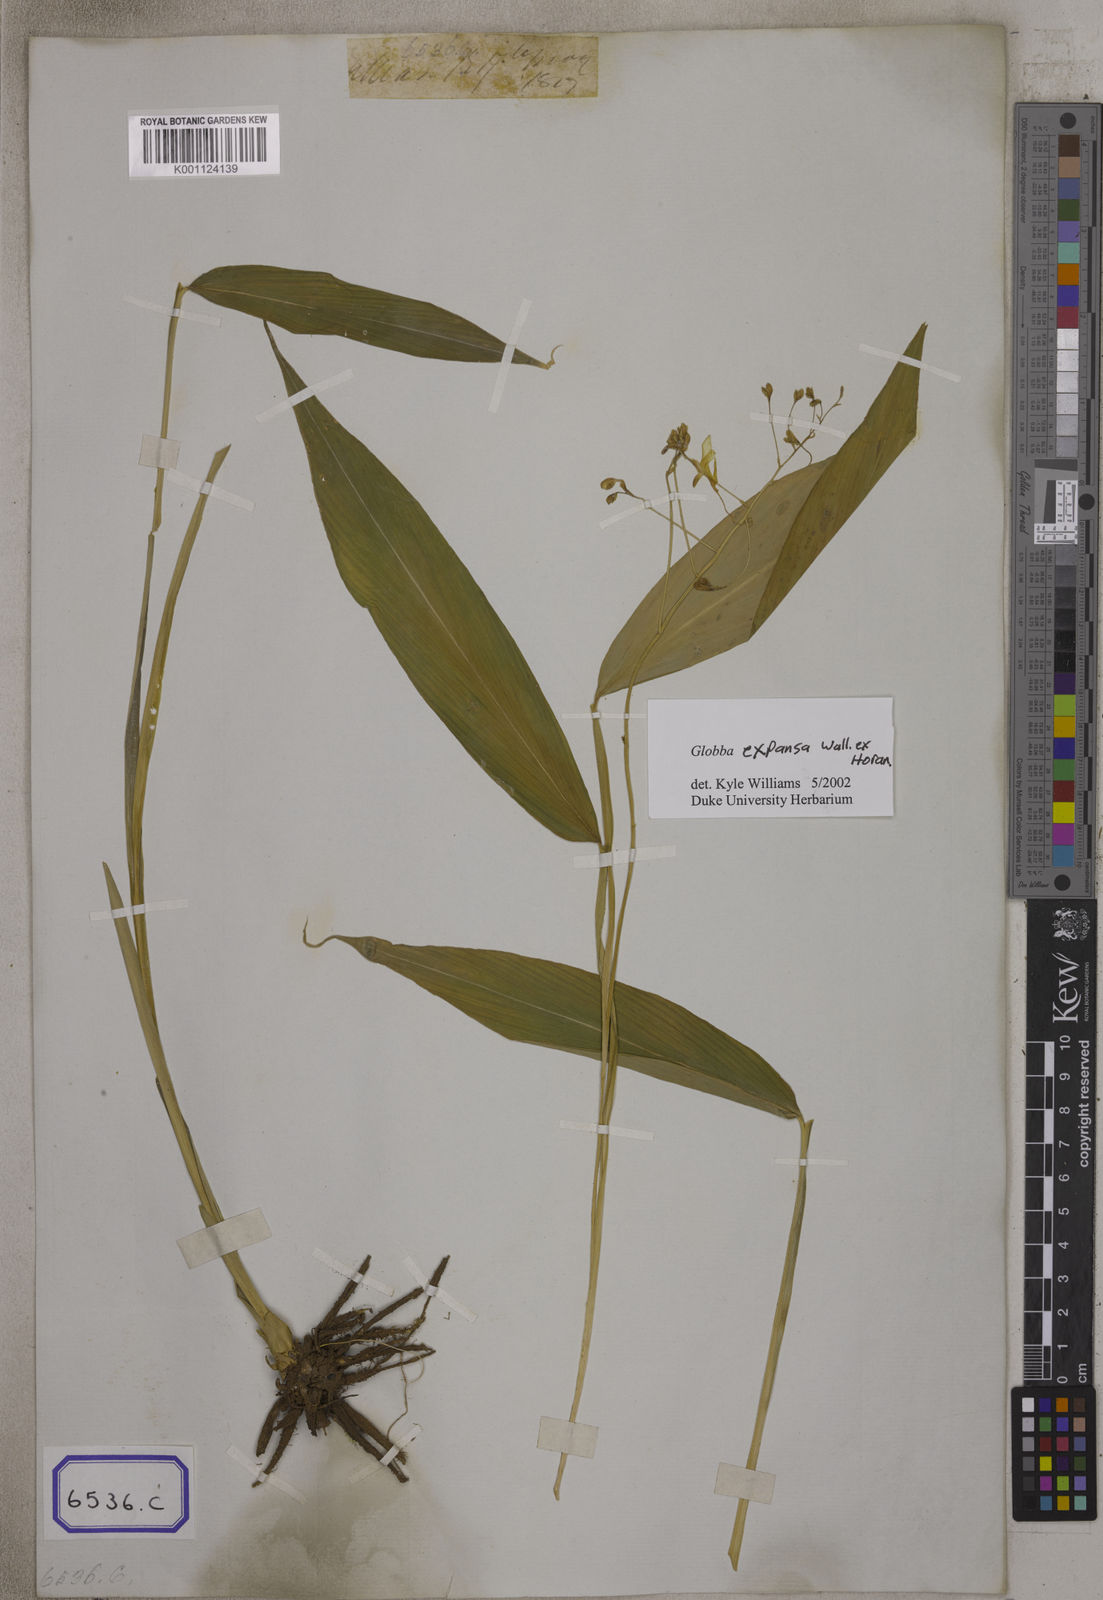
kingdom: Plantae
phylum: Tracheophyta
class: Liliopsida
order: Zingiberales
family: Zingiberaceae
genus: Globba
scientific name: Globba
